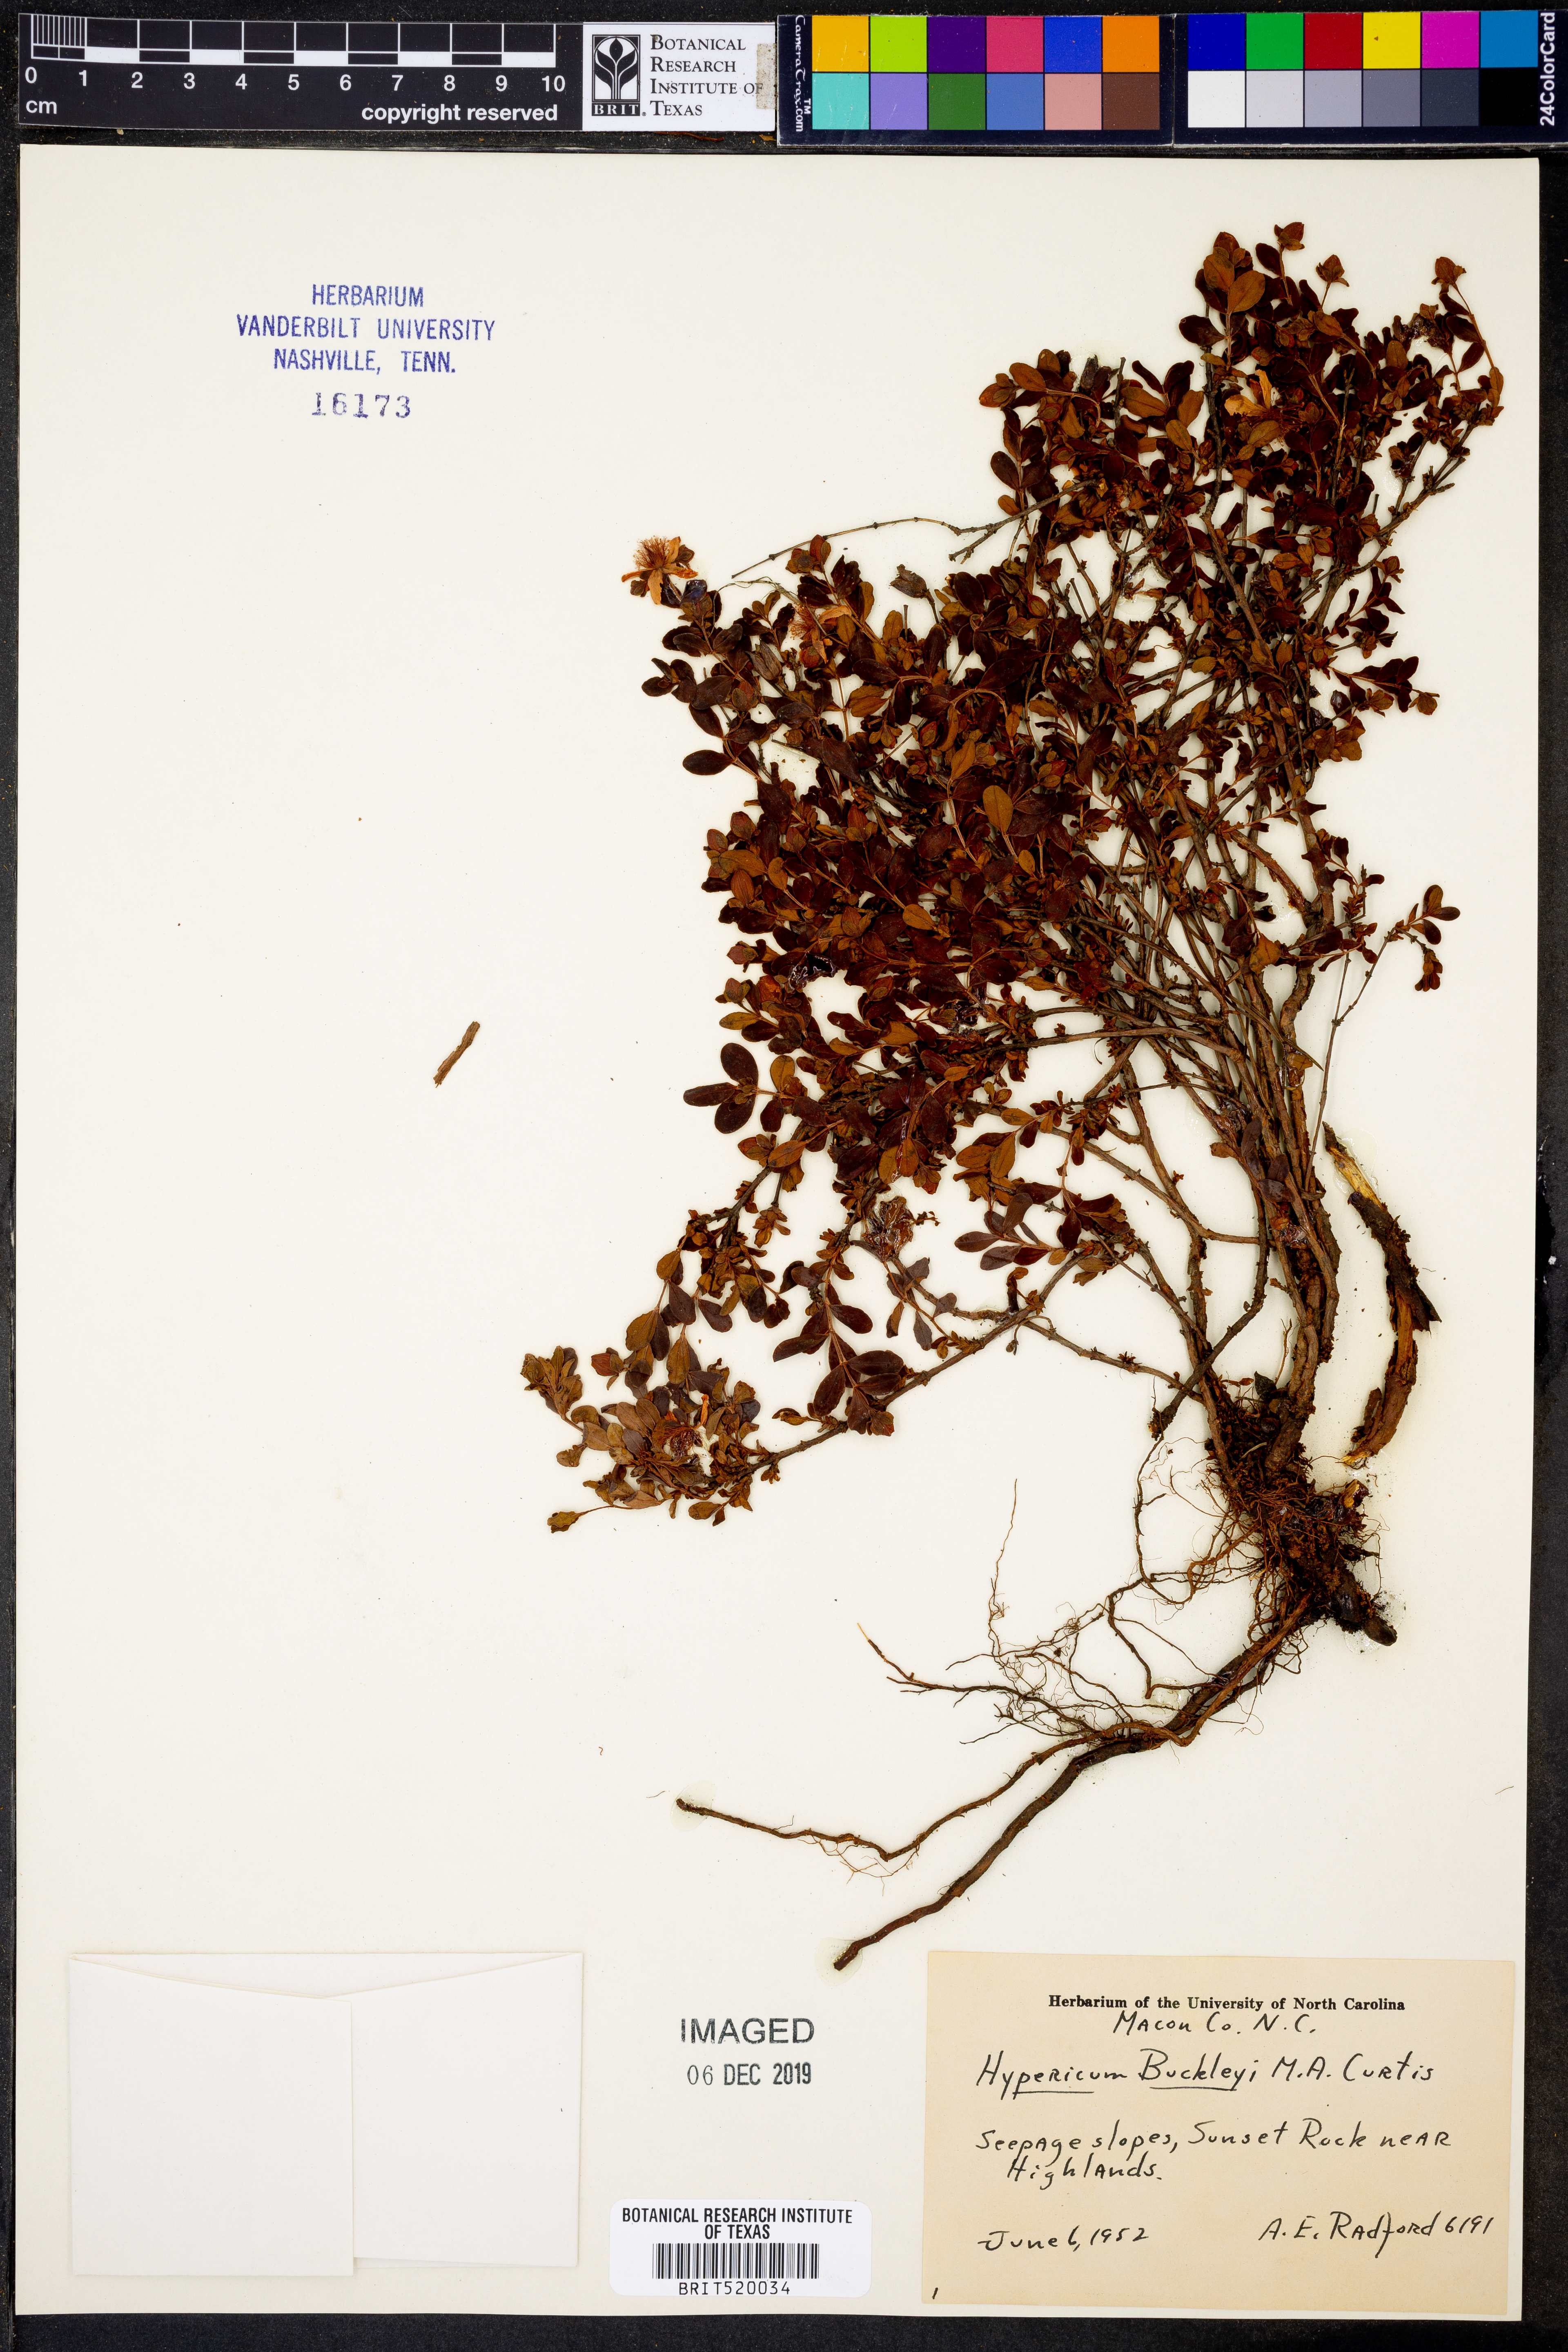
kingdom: Plantae
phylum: Tracheophyta
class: Magnoliopsida
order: Malpighiales
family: Hypericaceae
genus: Hypericum
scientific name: Hypericum buckleyi
